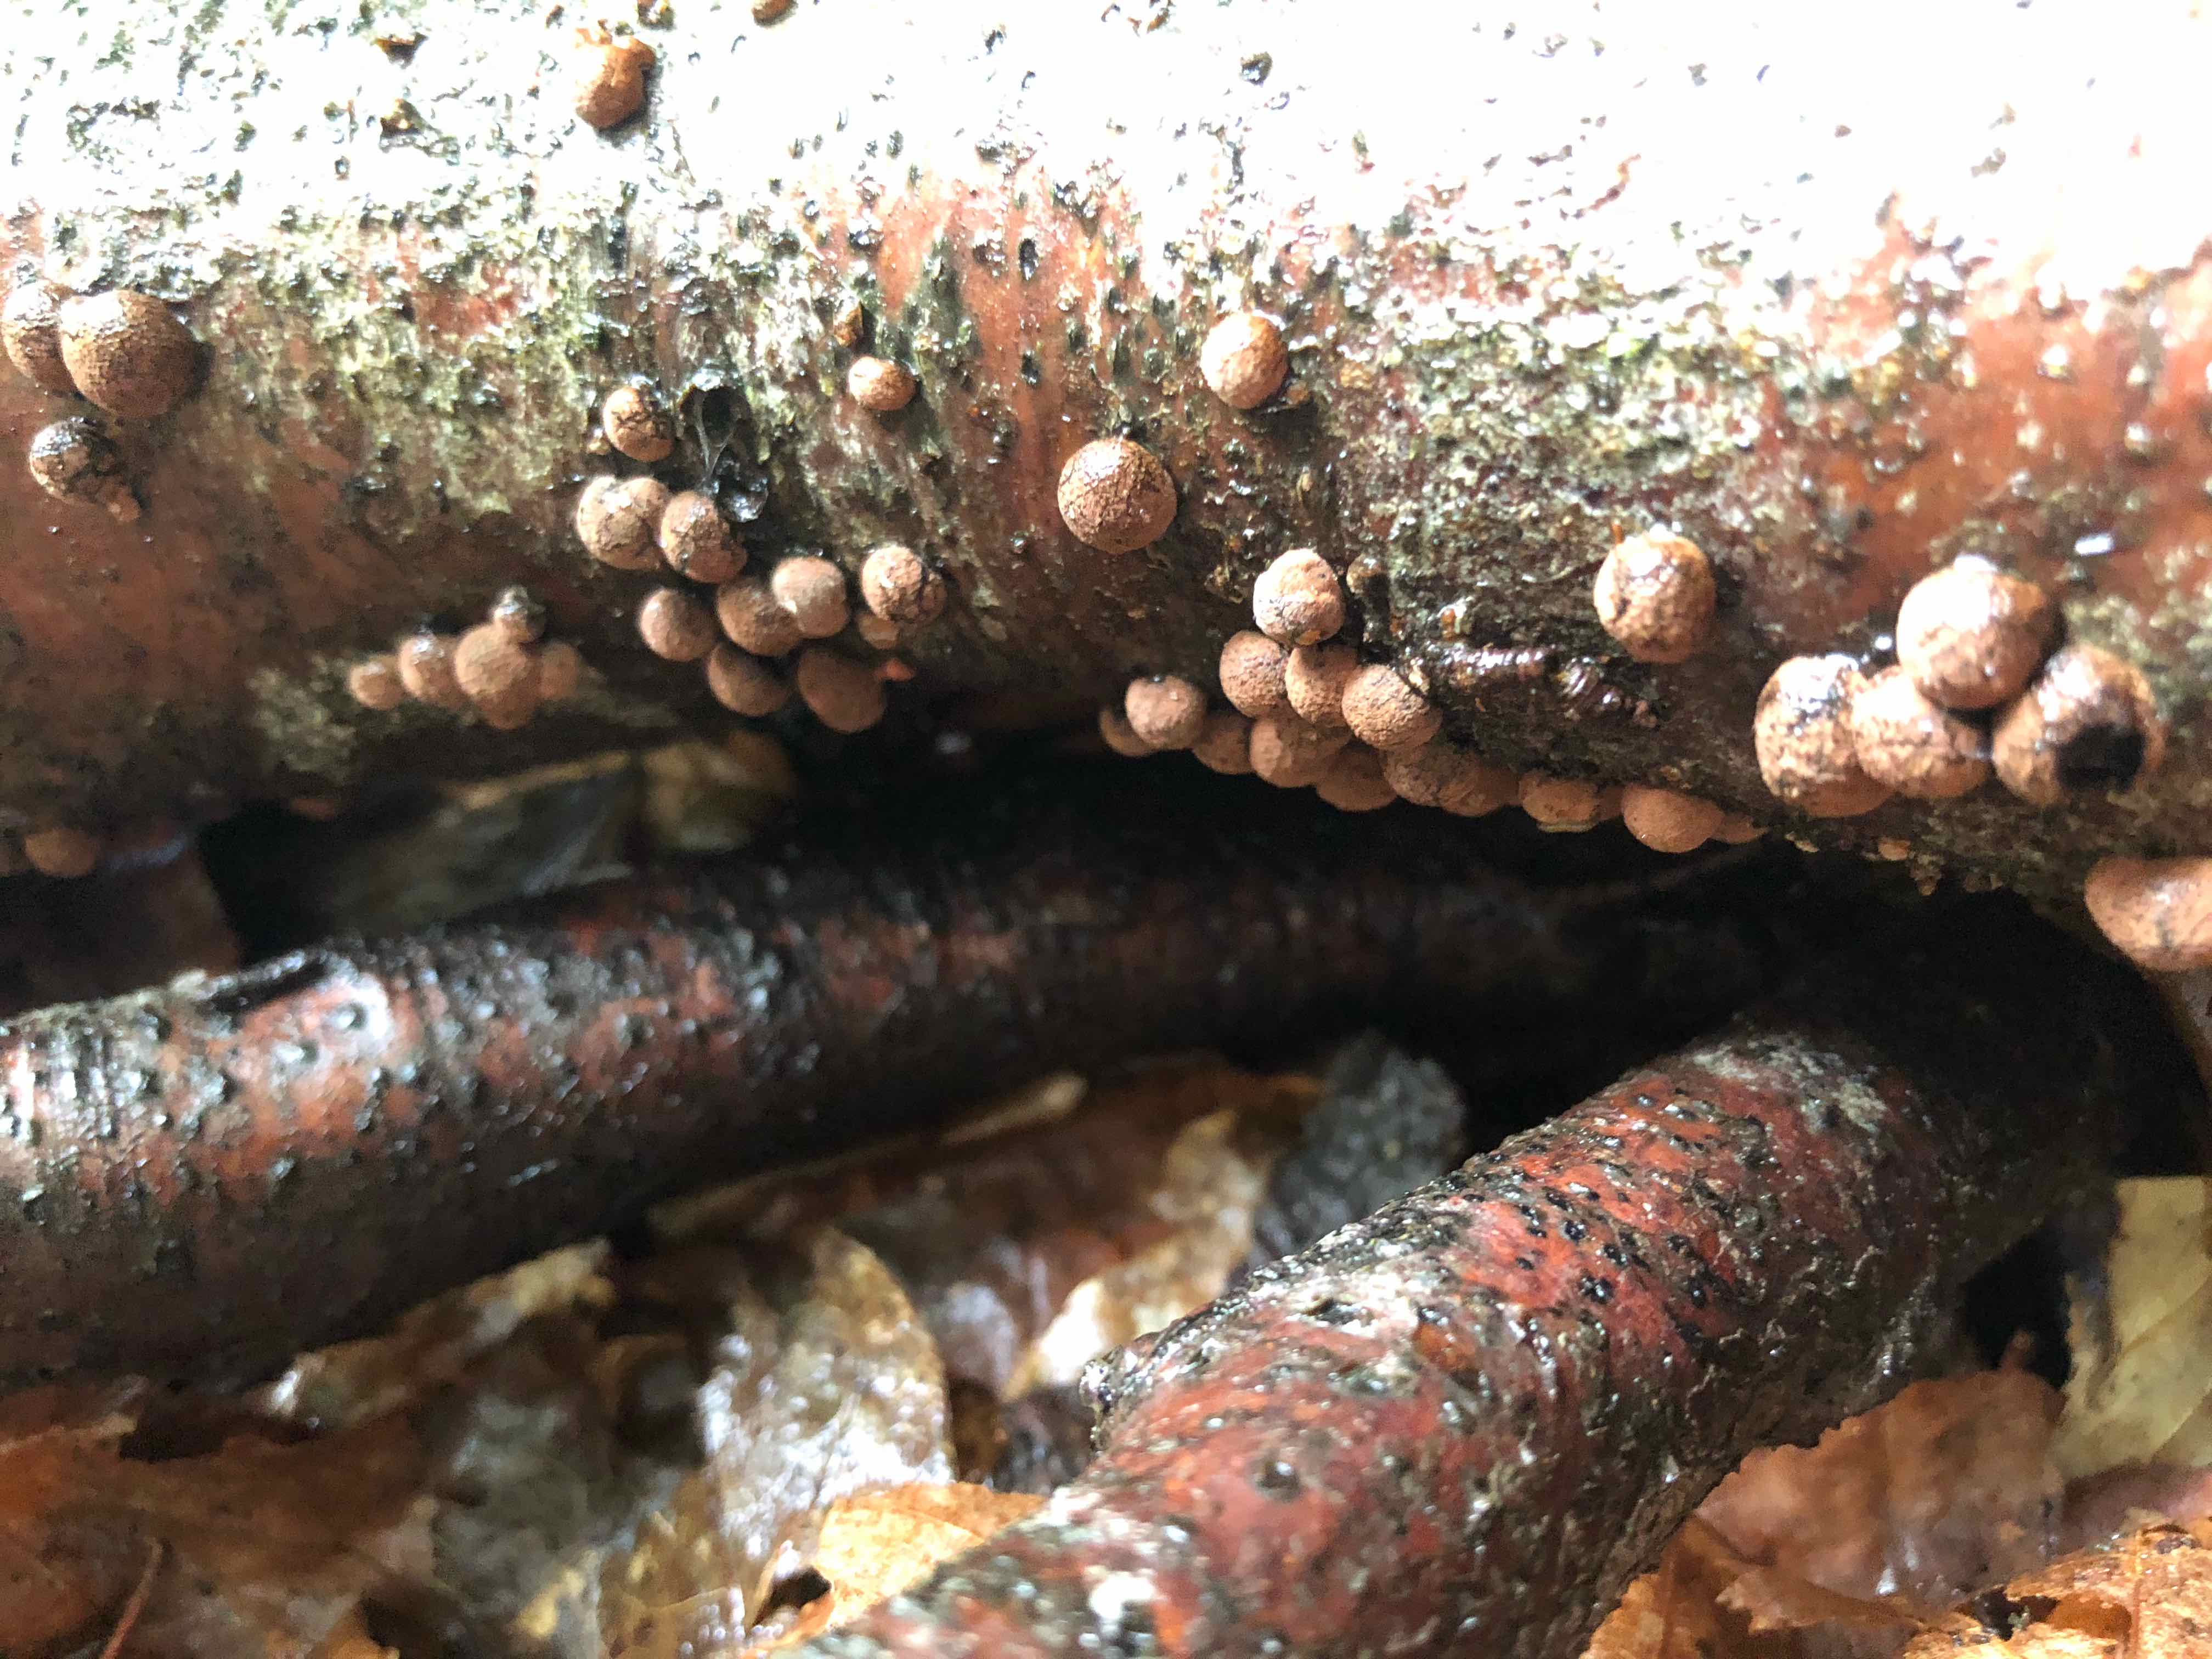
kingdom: Fungi
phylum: Ascomycota
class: Sordariomycetes
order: Xylariales
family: Hypoxylaceae
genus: Hypoxylon
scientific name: Hypoxylon fragiforme
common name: kuljordbær
